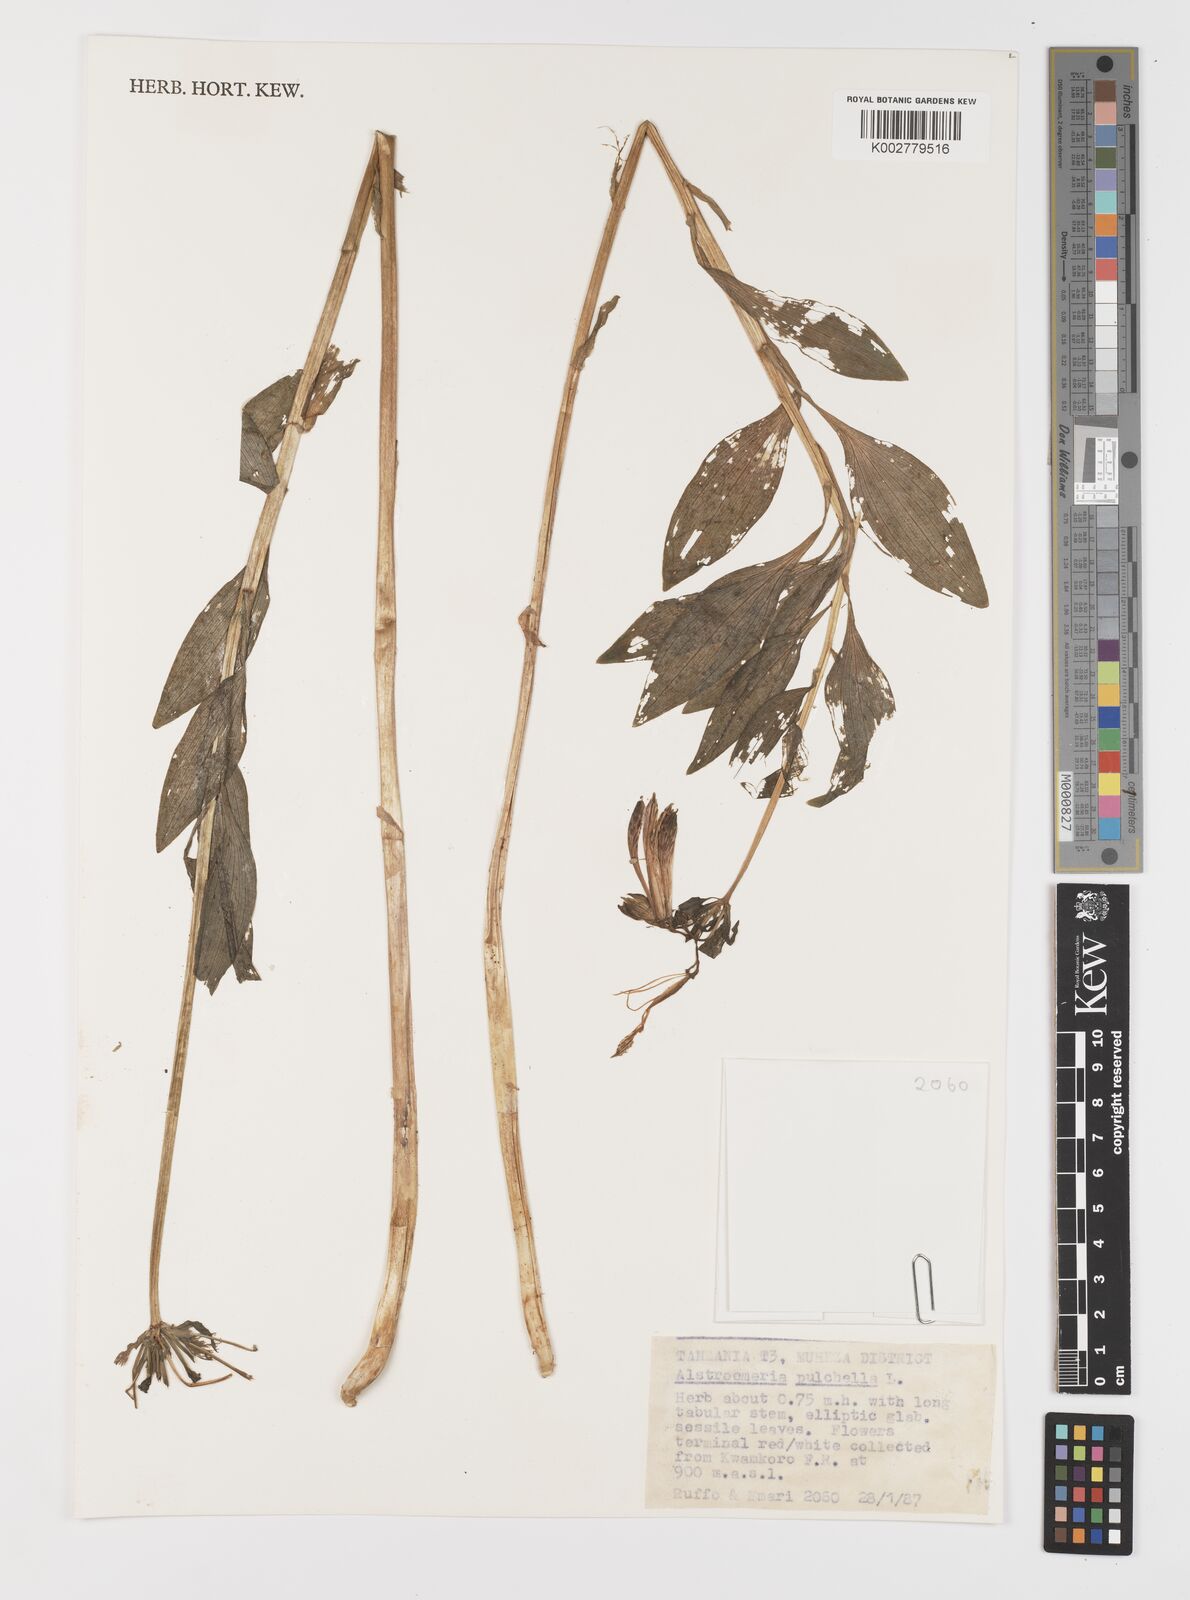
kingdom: Plantae
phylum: Tracheophyta
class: Liliopsida
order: Liliales
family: Alstroemeriaceae
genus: Alstroemeria
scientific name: Alstroemeria pelegrina
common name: Peruvian-lily
